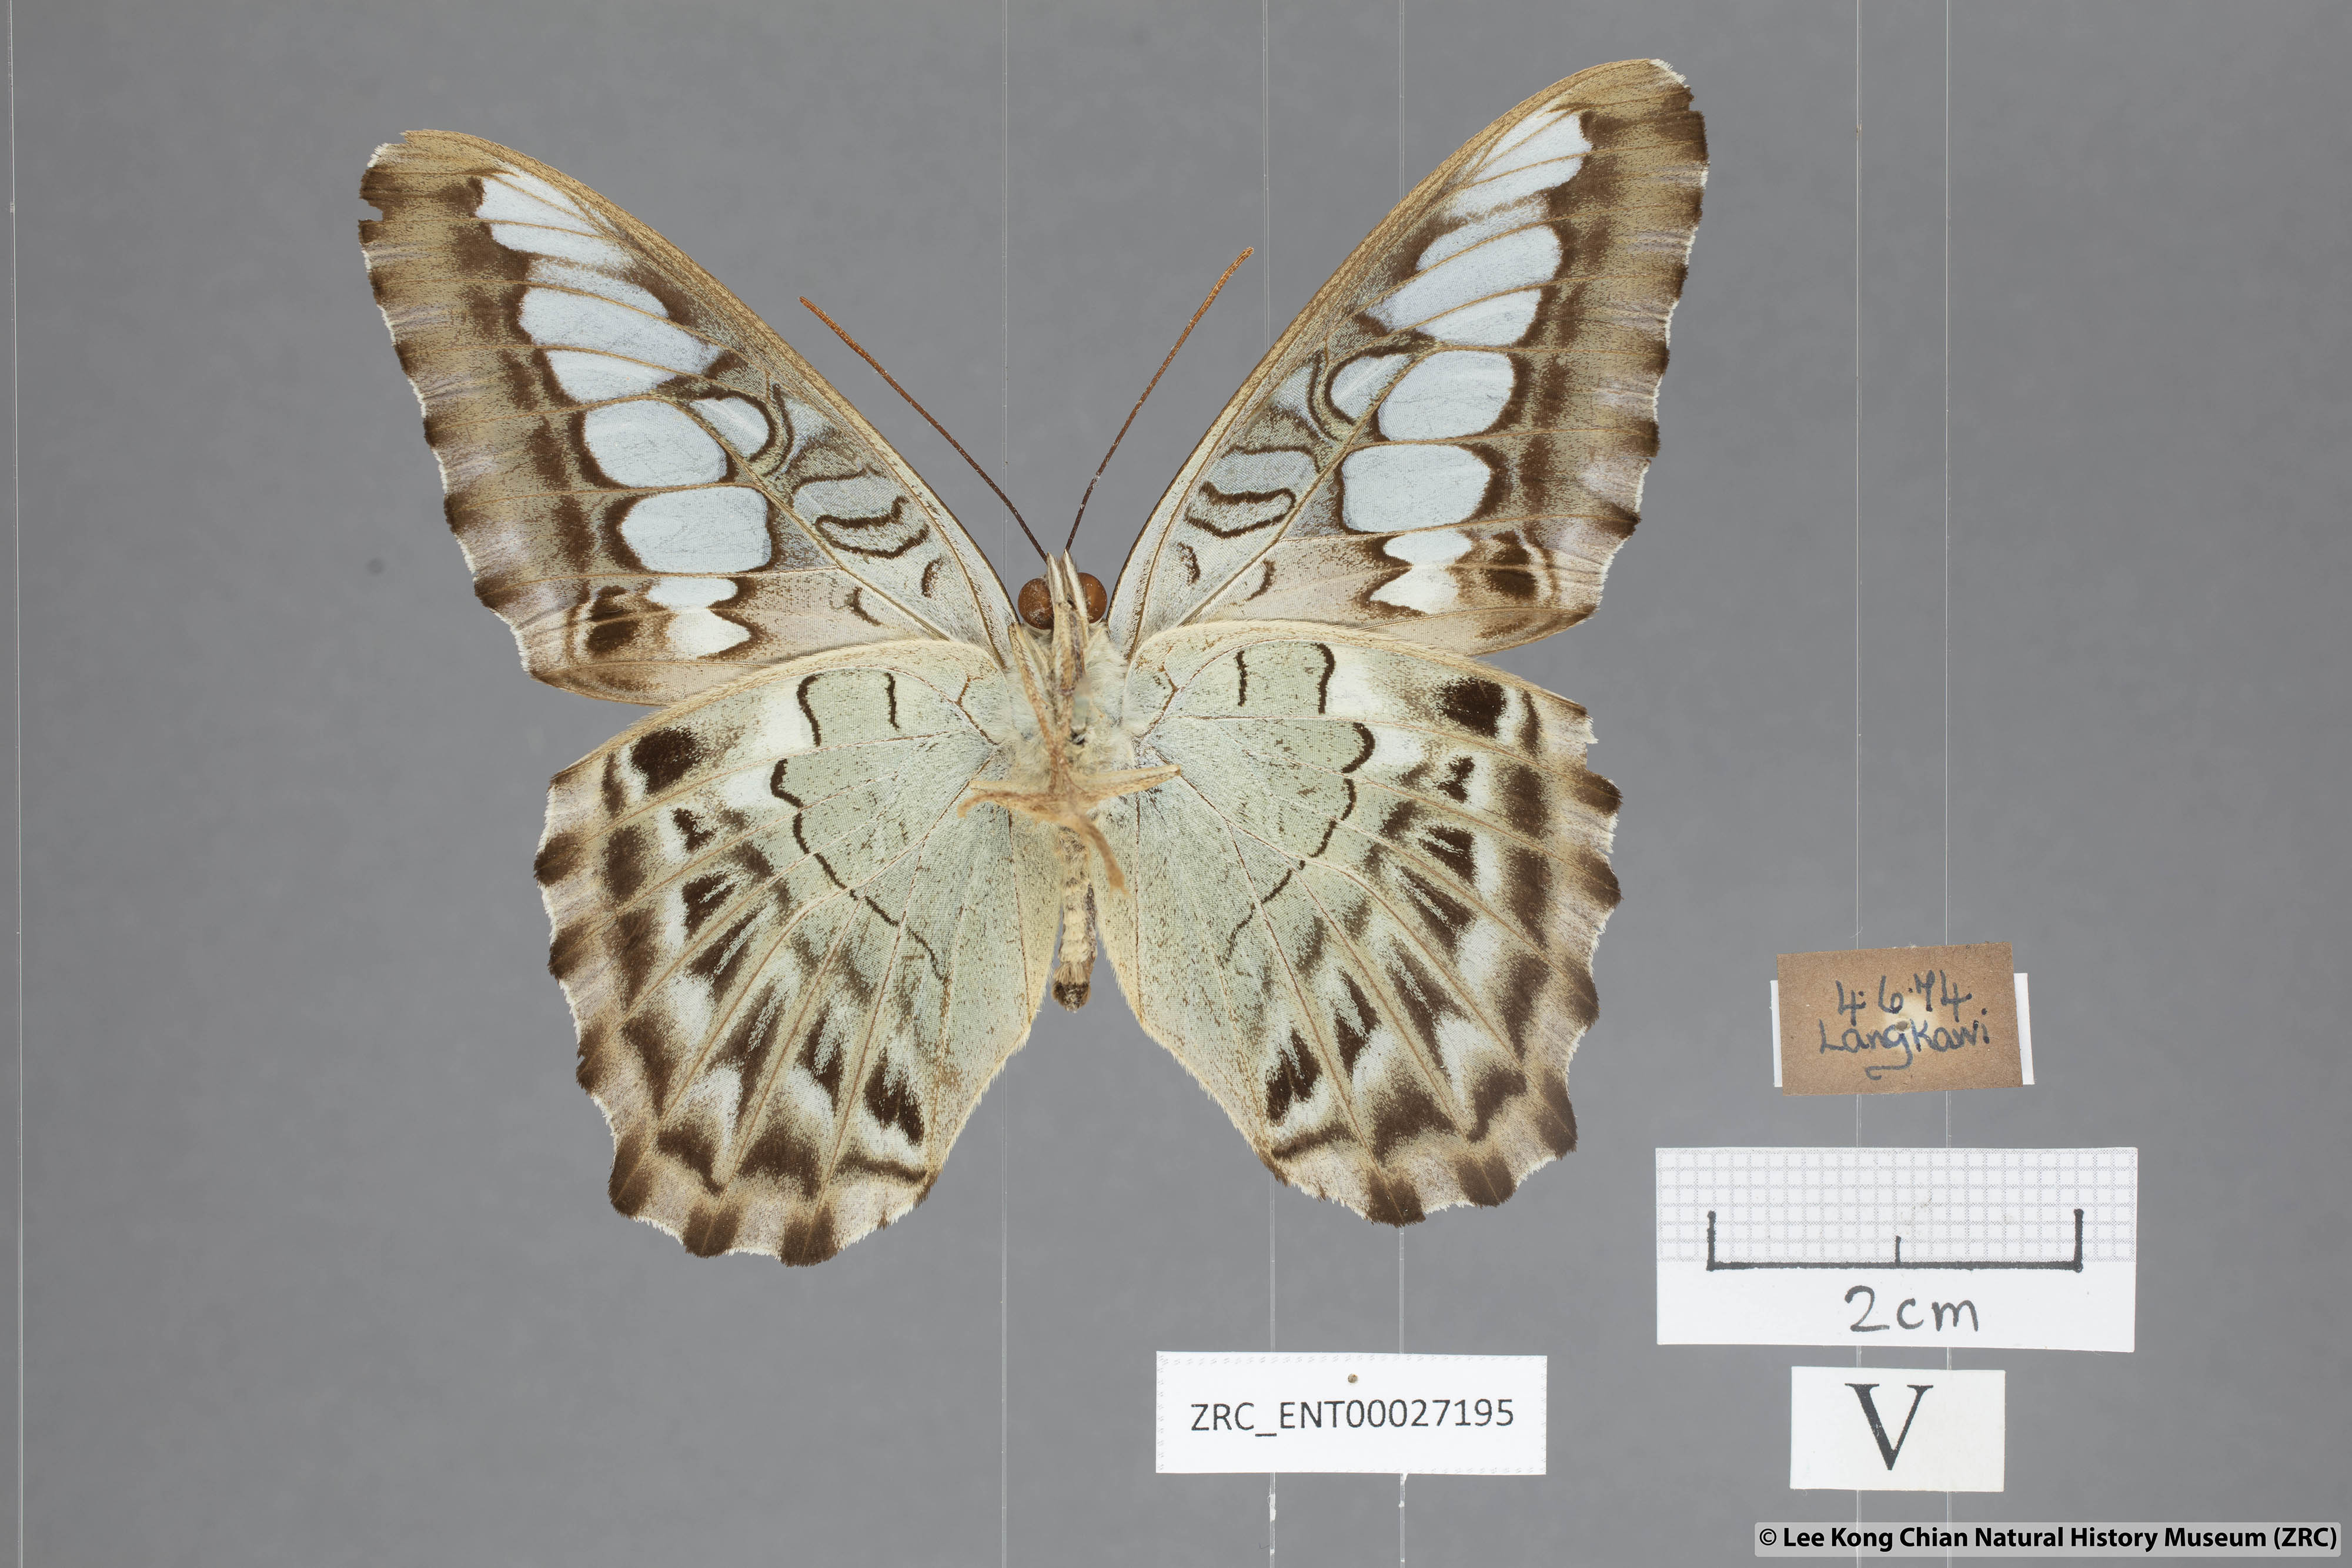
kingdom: Animalia
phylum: Arthropoda
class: Insecta
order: Lepidoptera
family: Nymphalidae
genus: Kallima
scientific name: Kallima sylvia
